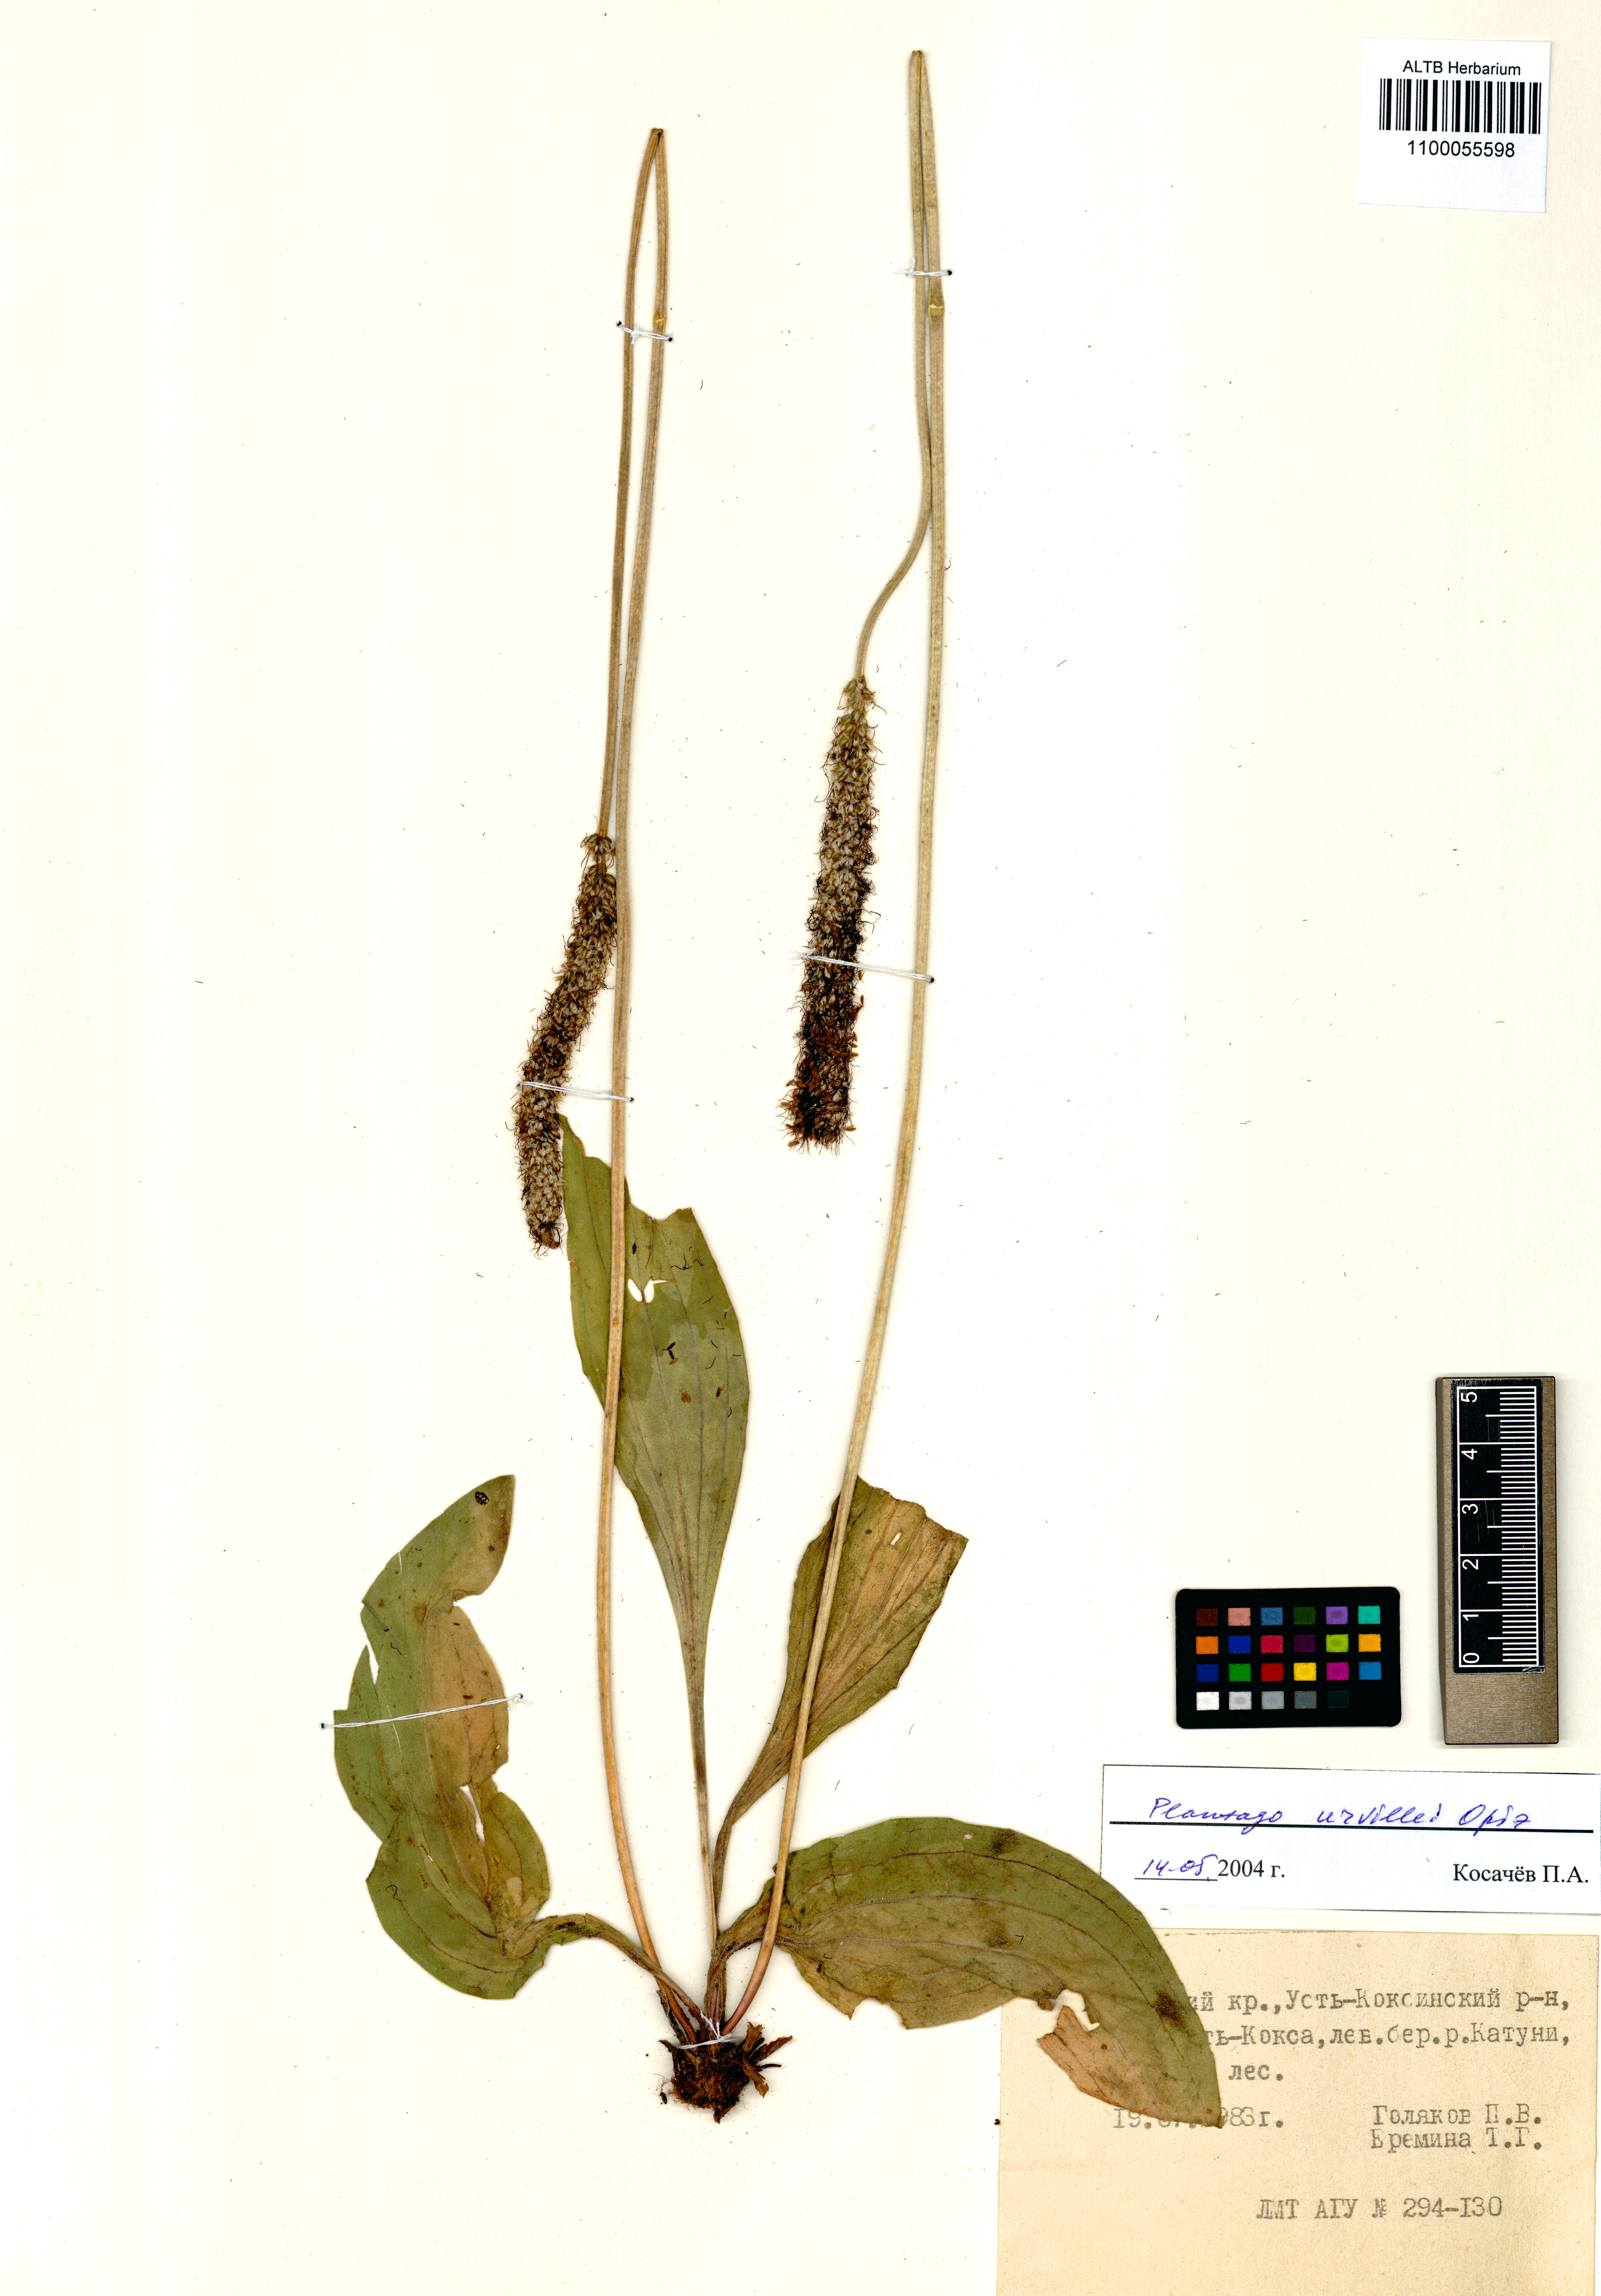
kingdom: Plantae
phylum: Tracheophyta
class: Magnoliopsida
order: Lamiales
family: Plantaginaceae
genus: Plantago
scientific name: Plantago urvillei
